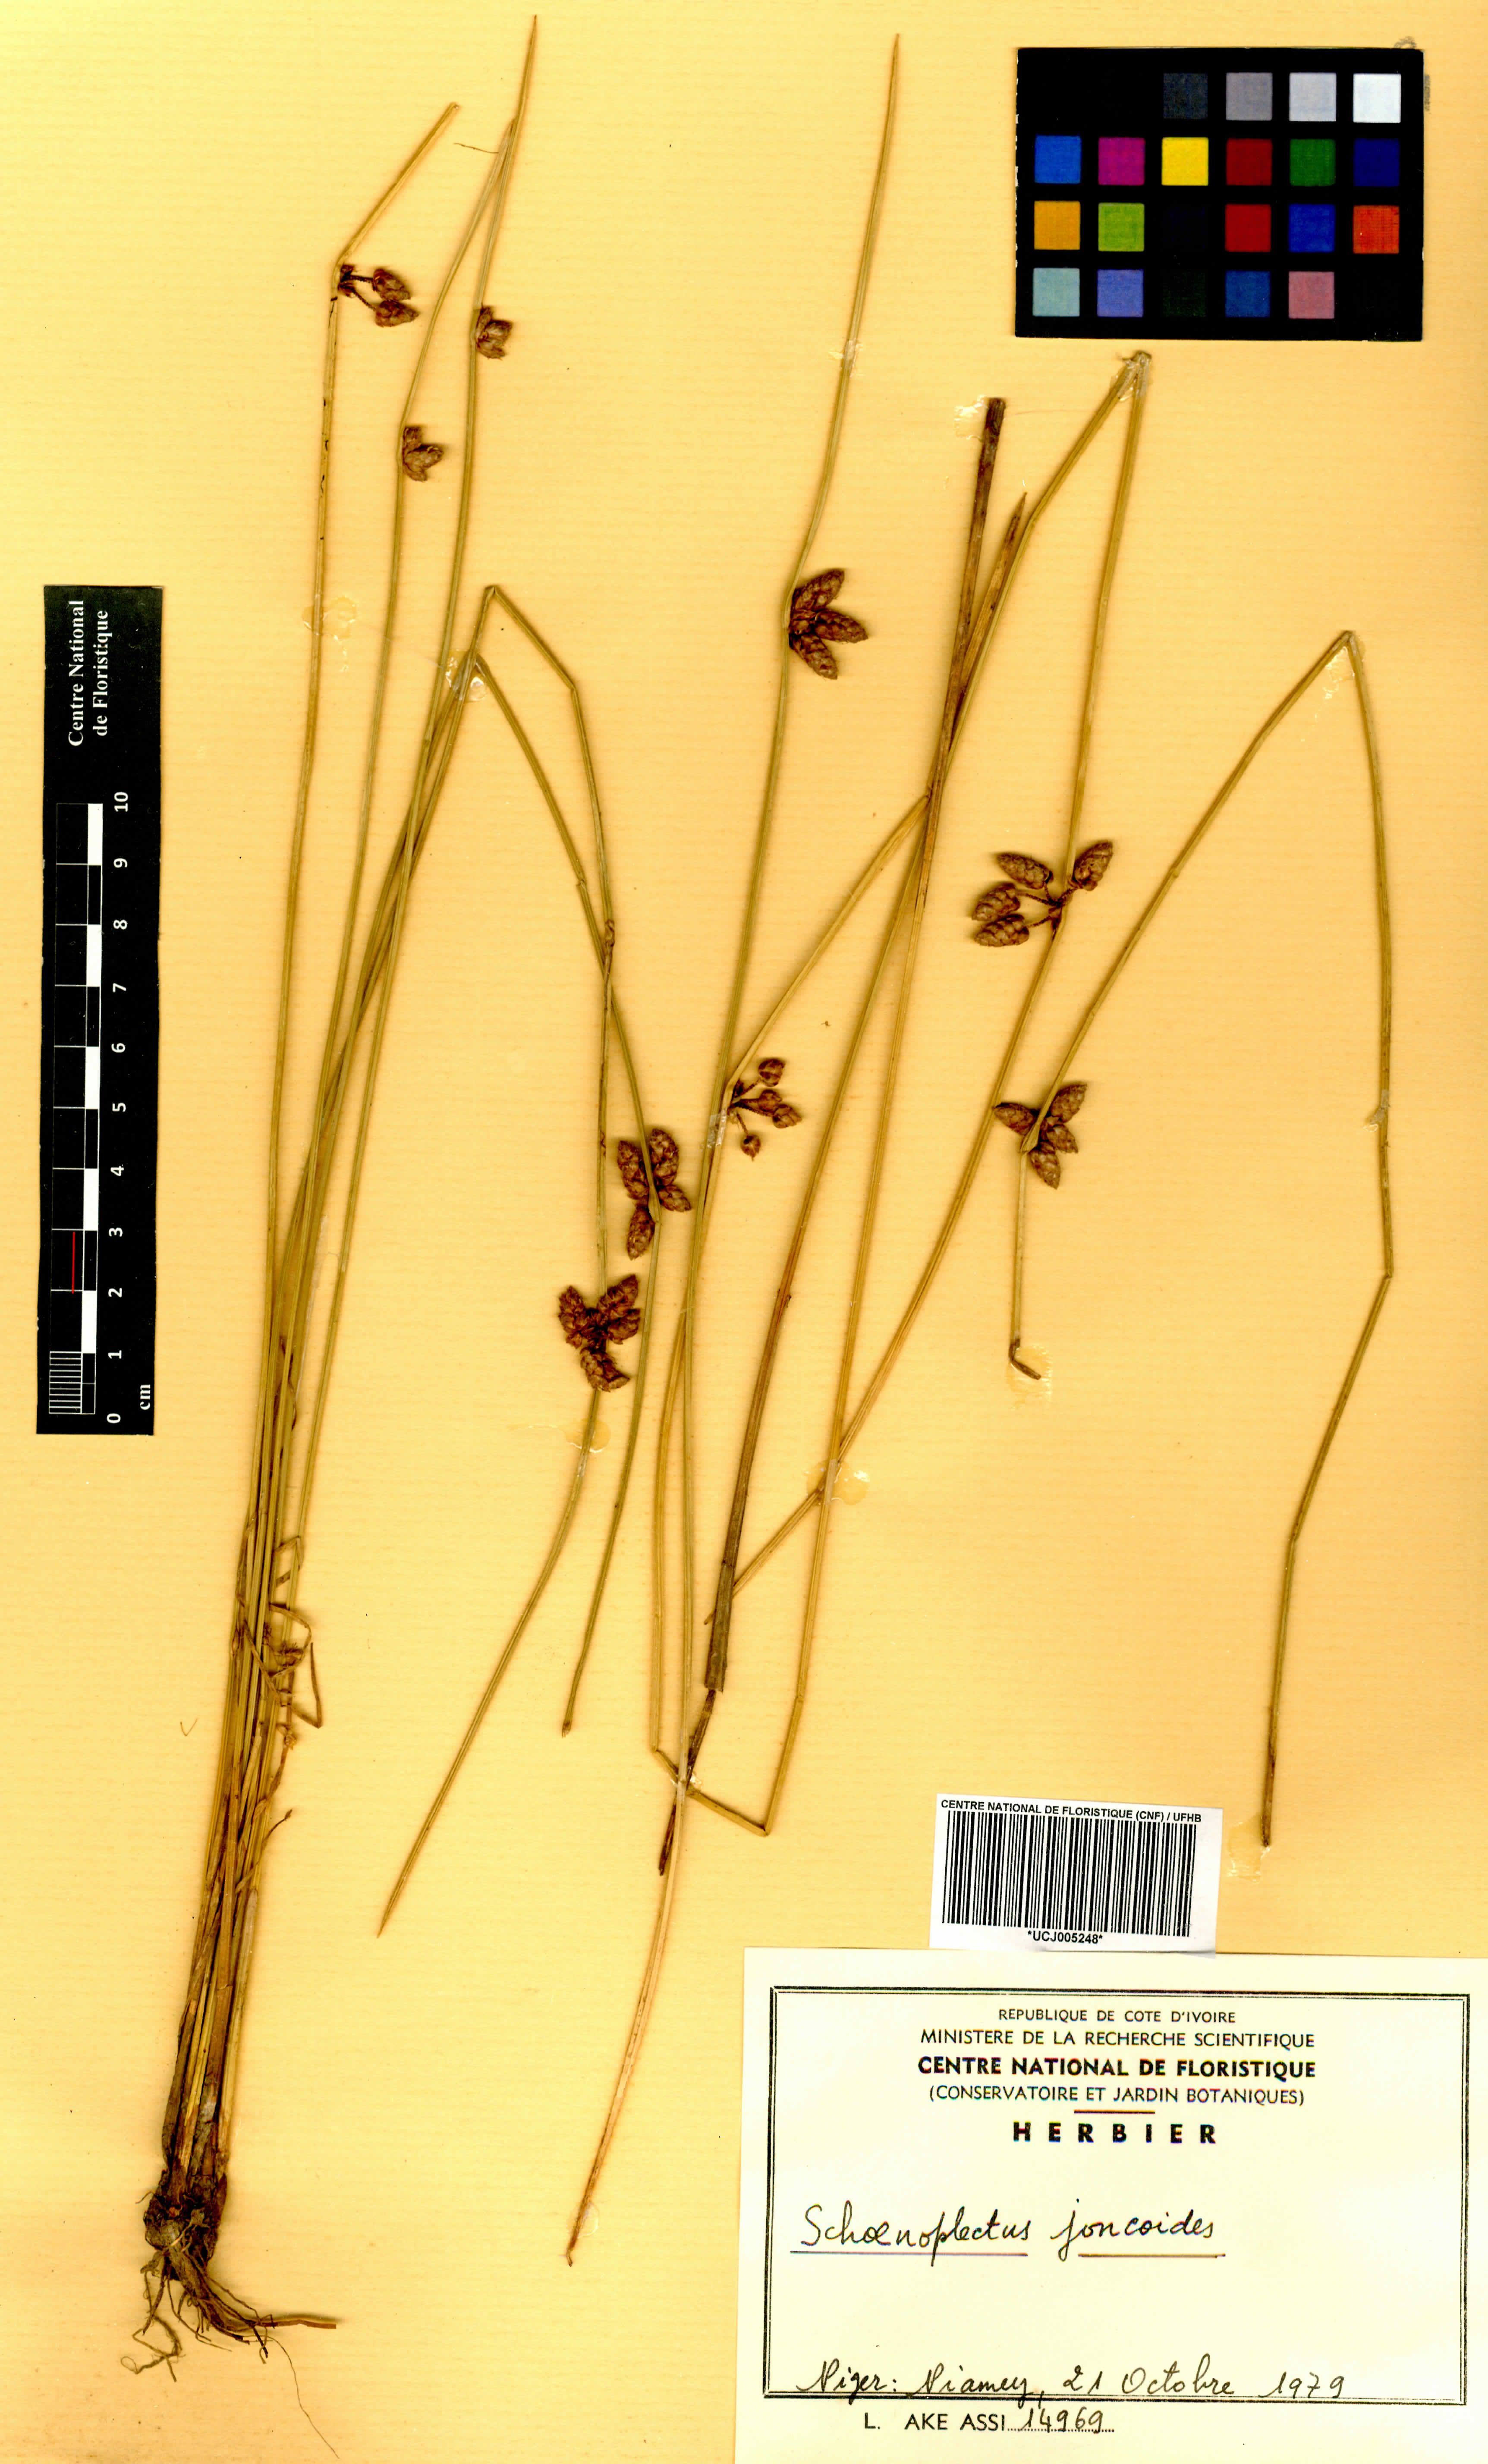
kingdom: Plantae
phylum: Tracheophyta
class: Liliopsida
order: Poales
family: Cyperaceae
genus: Schoenoplectus
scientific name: Schoenoplectus
